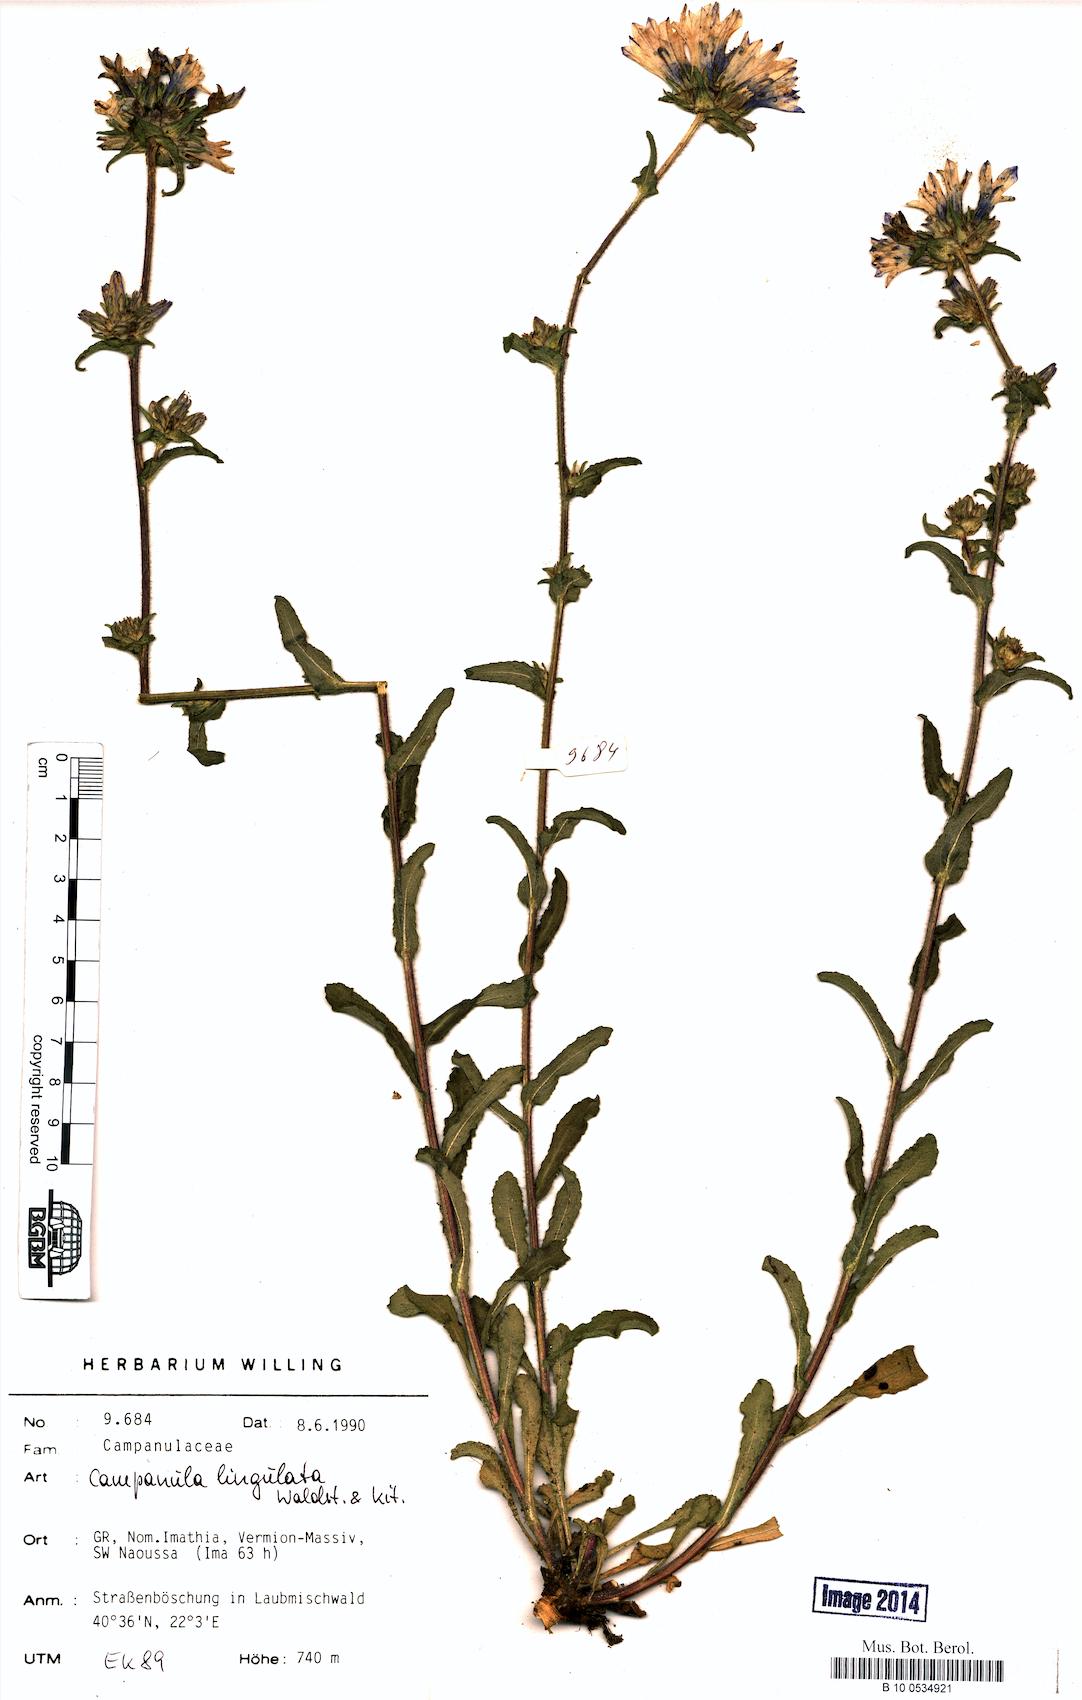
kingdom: Plantae
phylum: Tracheophyta
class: Magnoliopsida
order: Asterales
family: Campanulaceae
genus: Campanula
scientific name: Campanula lingulata
